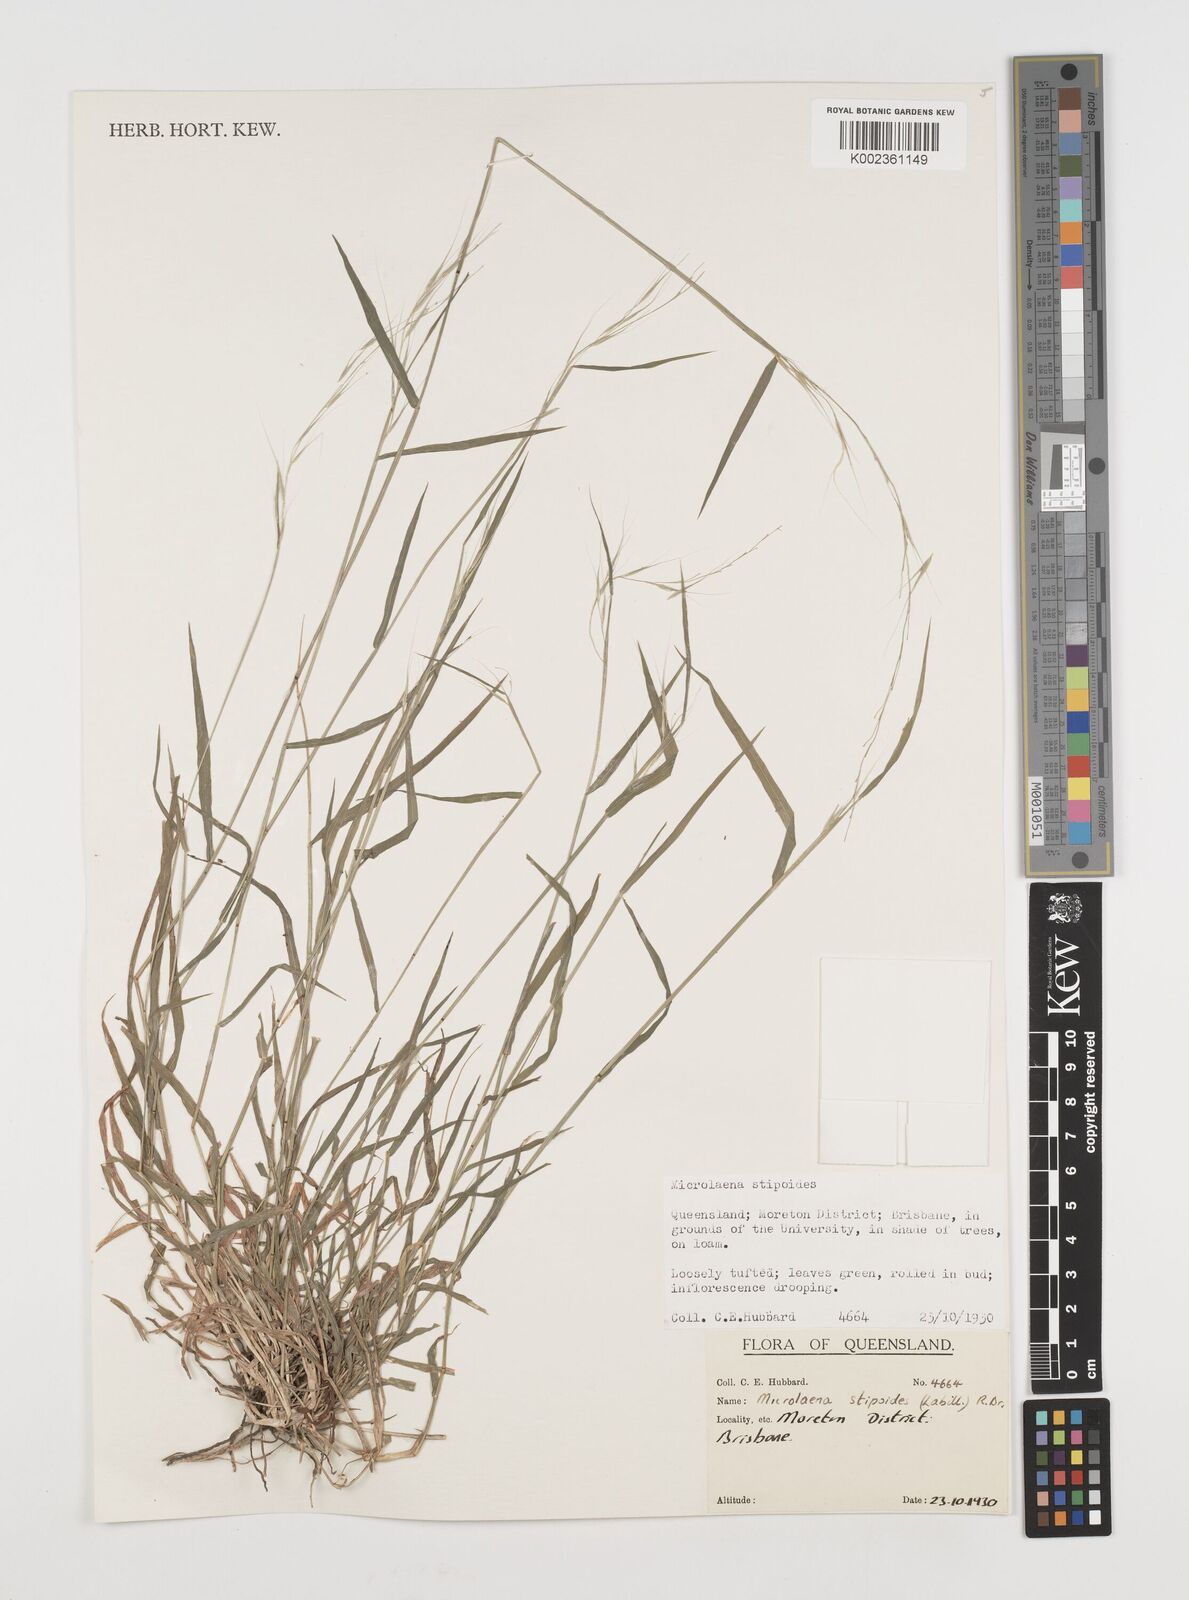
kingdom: Plantae
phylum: Tracheophyta
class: Liliopsida
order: Poales
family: Poaceae
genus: Microlaena
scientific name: Microlaena stipoides
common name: Meadow ricegrass
